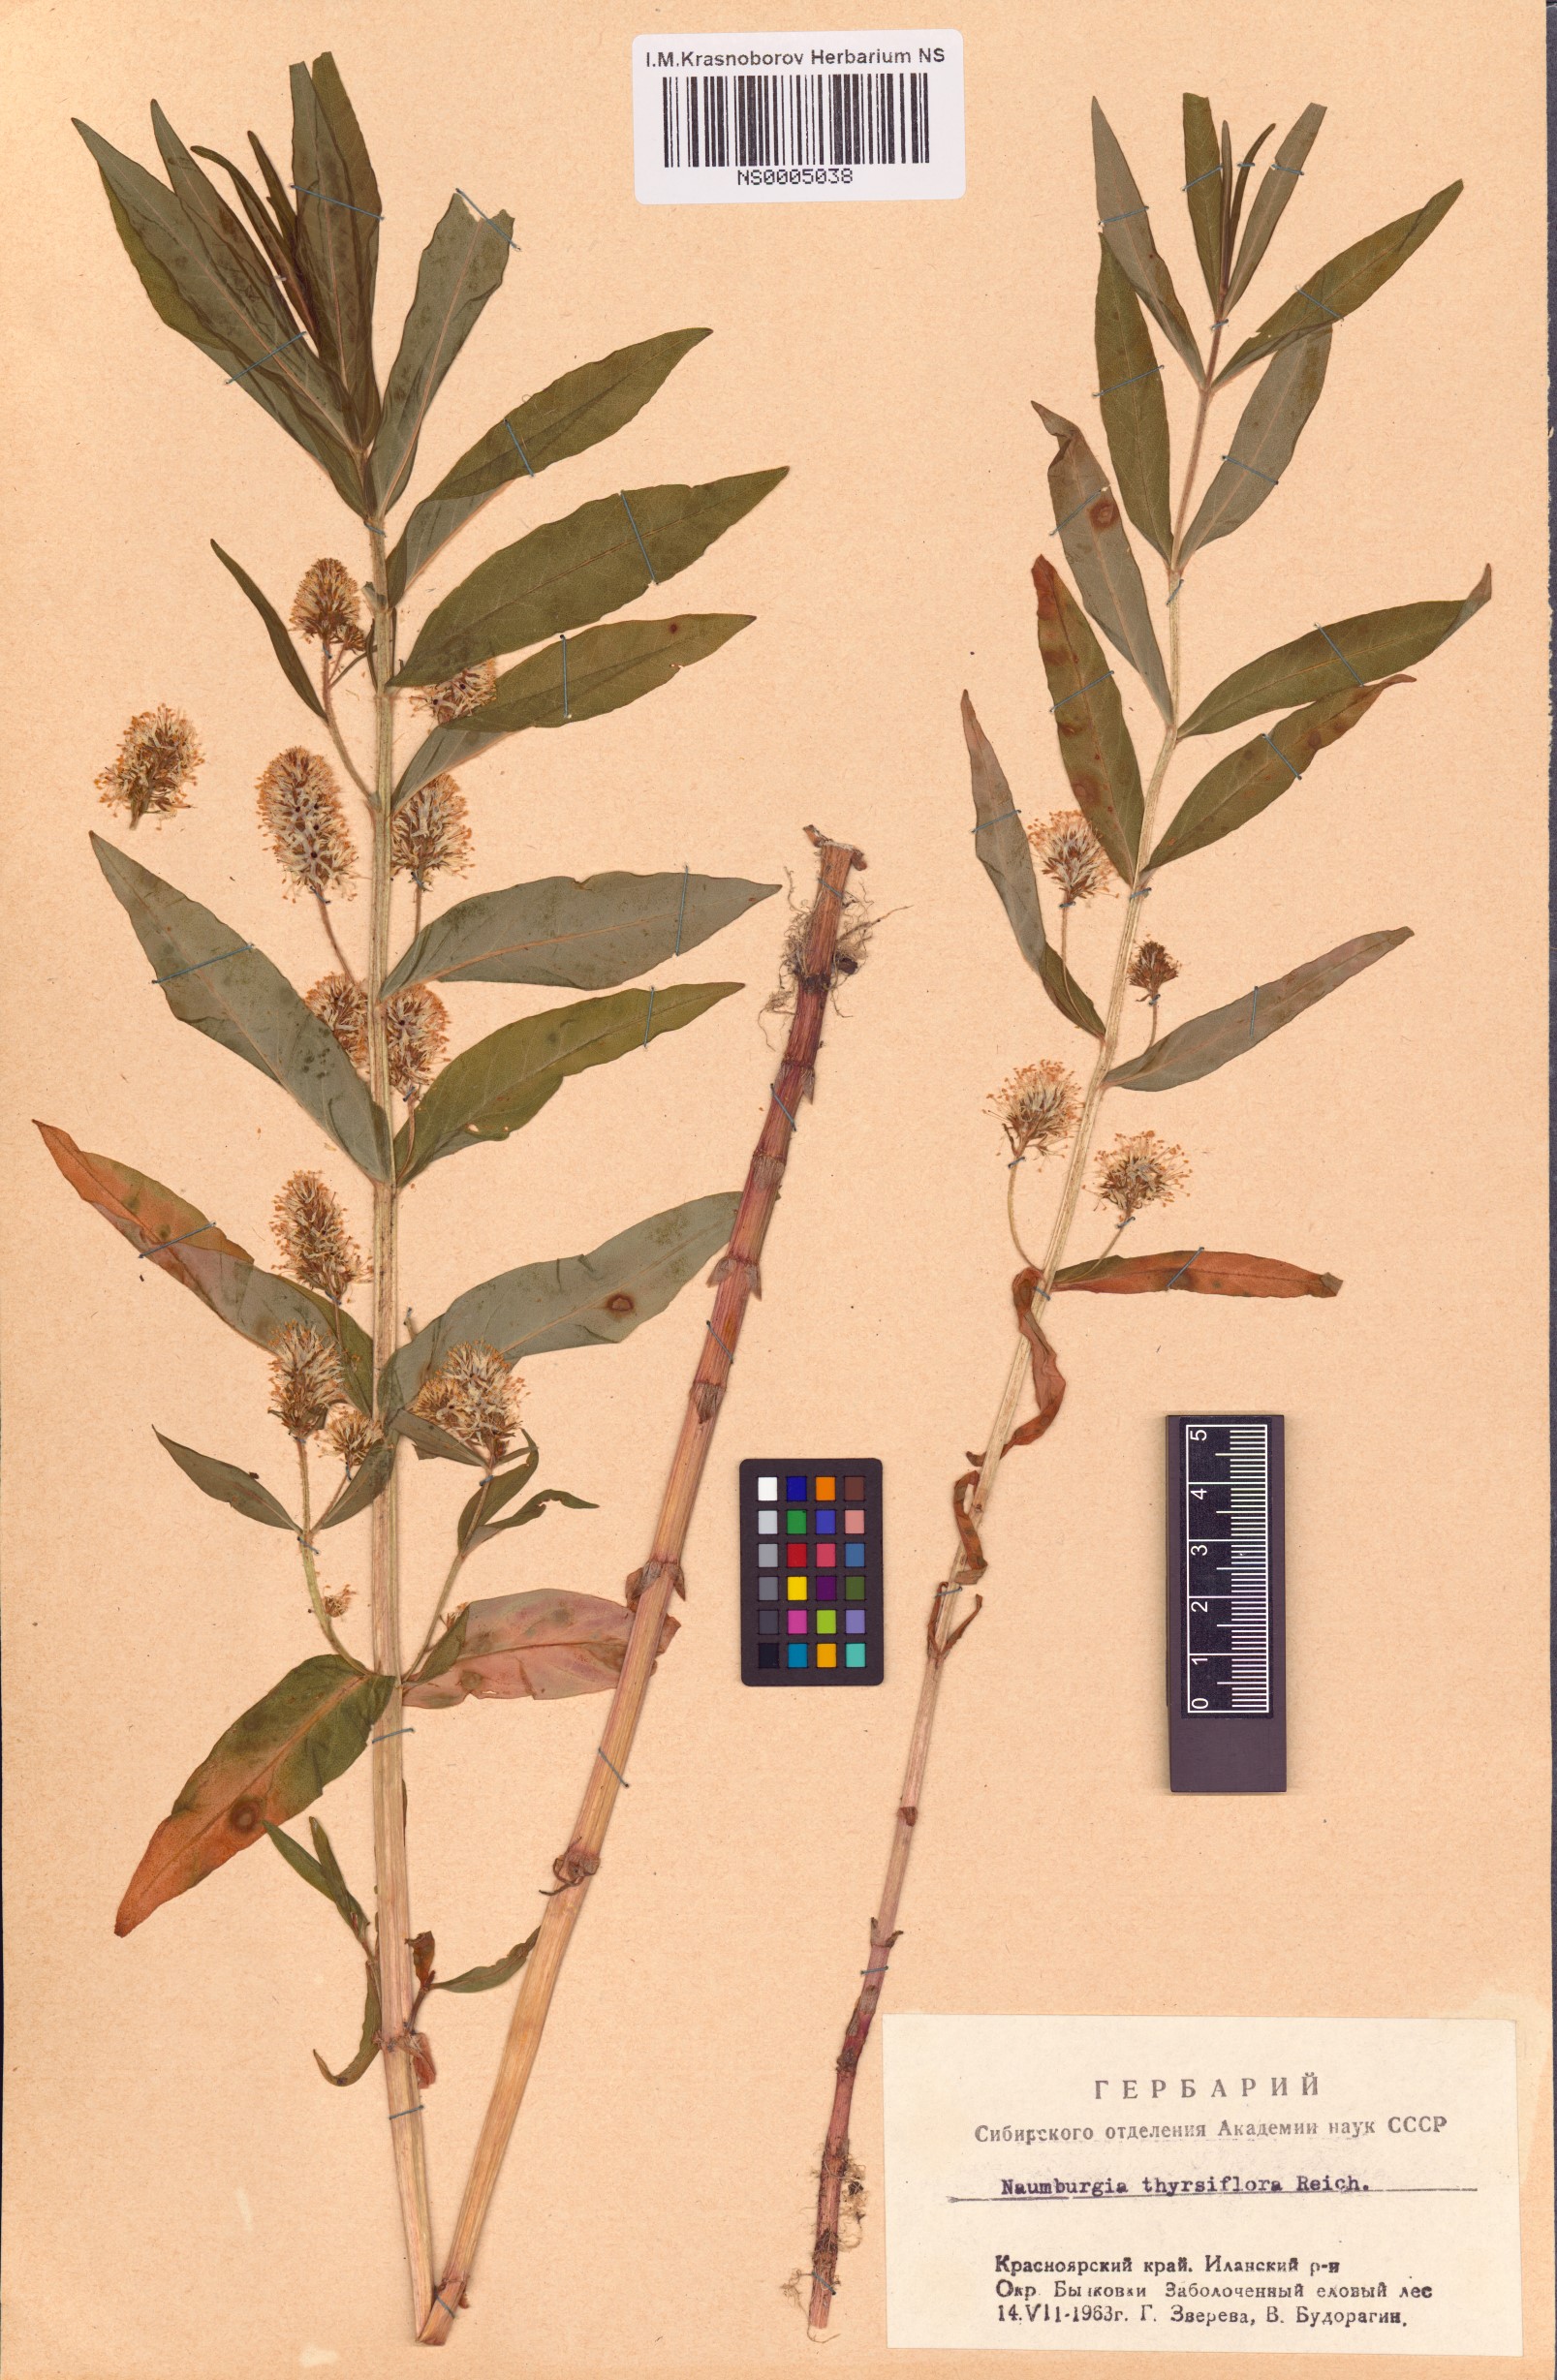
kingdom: Plantae
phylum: Tracheophyta
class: Magnoliopsida
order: Ericales
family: Primulaceae
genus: Lysimachia
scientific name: Lysimachia thyrsiflora
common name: Tufted loosestrife
